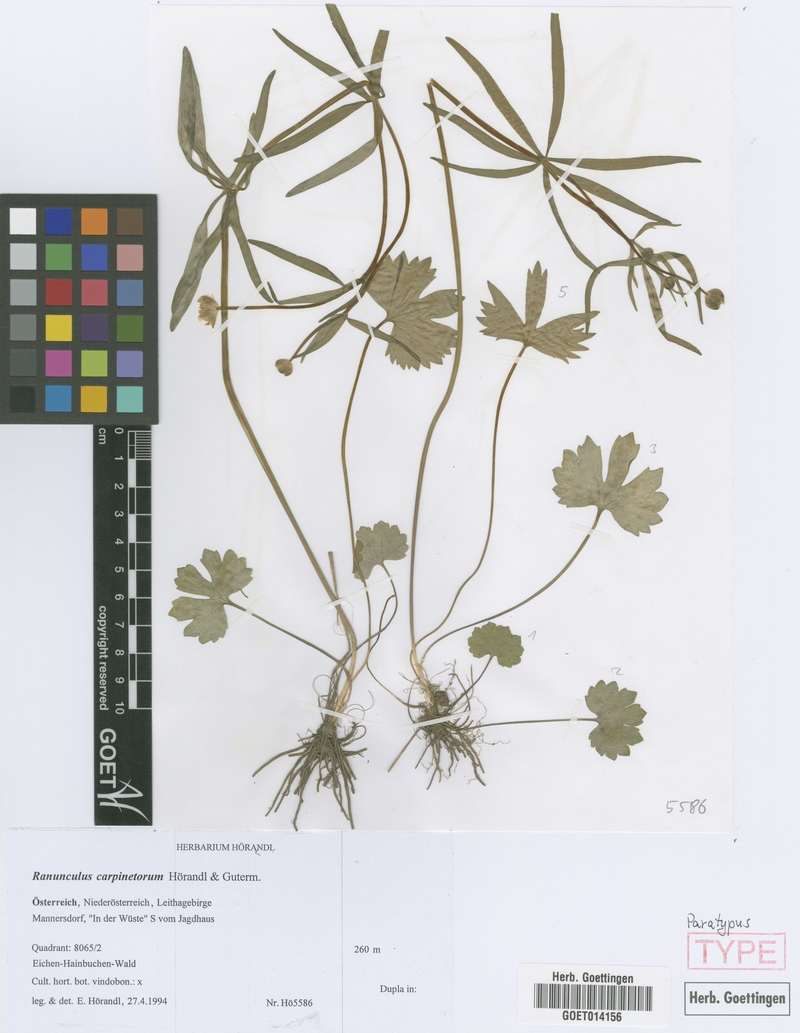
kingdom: Plantae
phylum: Tracheophyta
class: Magnoliopsida
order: Ranunculales
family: Ranunculaceae
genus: Ranunculus
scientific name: Ranunculus carpinetorum
